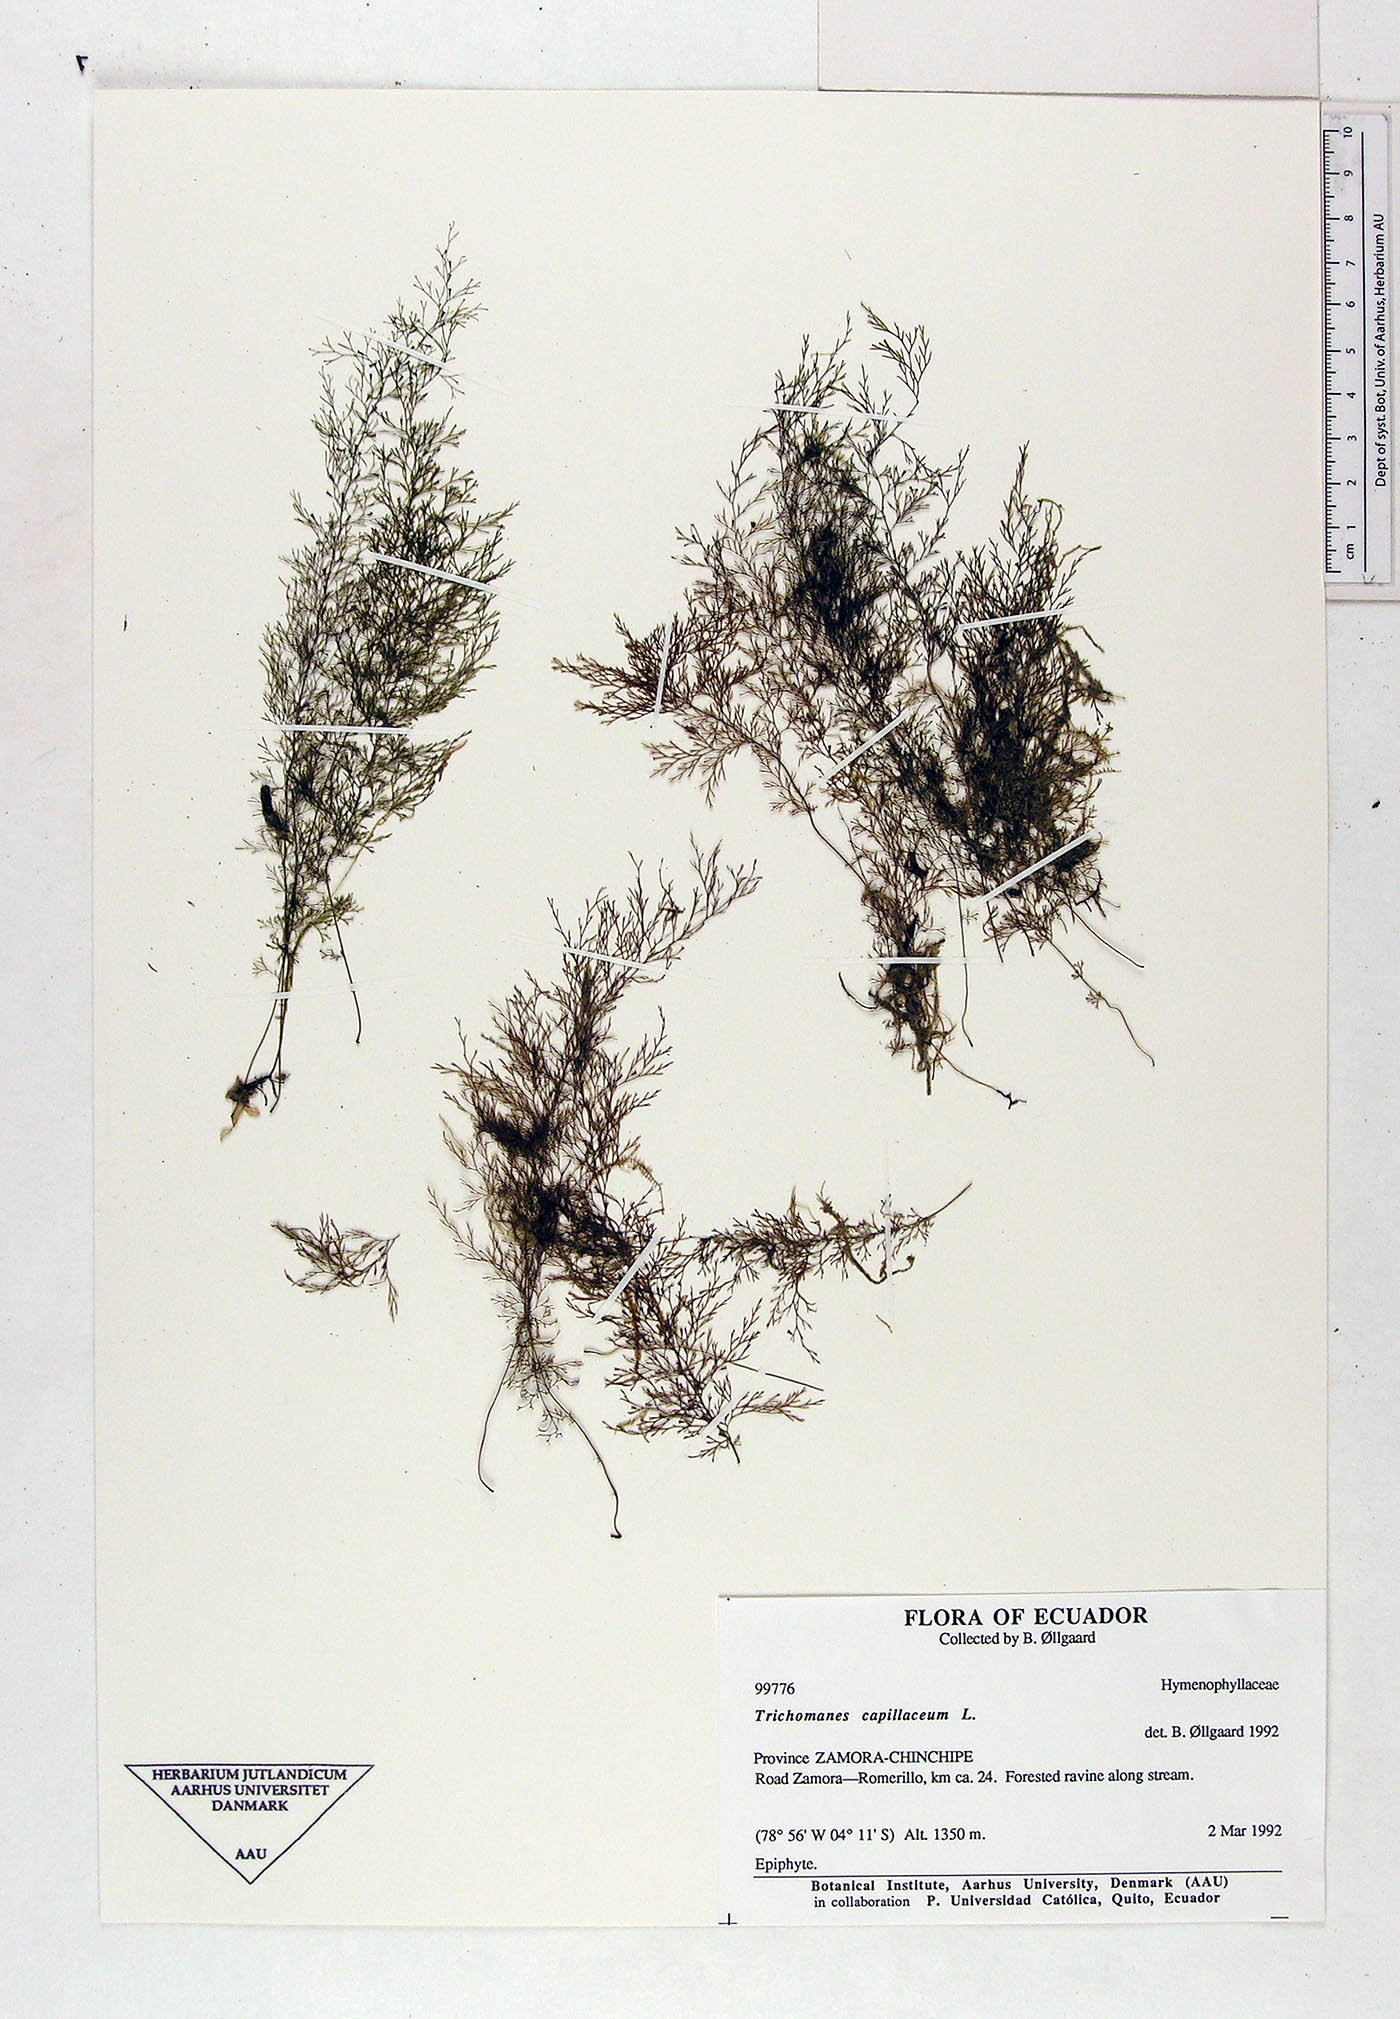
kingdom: Plantae
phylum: Tracheophyta
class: Polypodiopsida
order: Hymenophyllales
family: Hymenophyllaceae
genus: Polyphlebium
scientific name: Polyphlebium capillaceum
